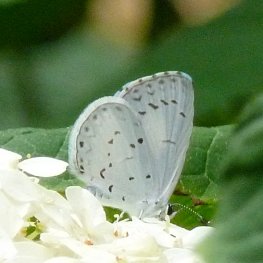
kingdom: Animalia
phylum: Arthropoda
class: Insecta
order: Lepidoptera
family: Lycaenidae
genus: Cyaniris
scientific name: Cyaniris neglecta
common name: Summer Azure
